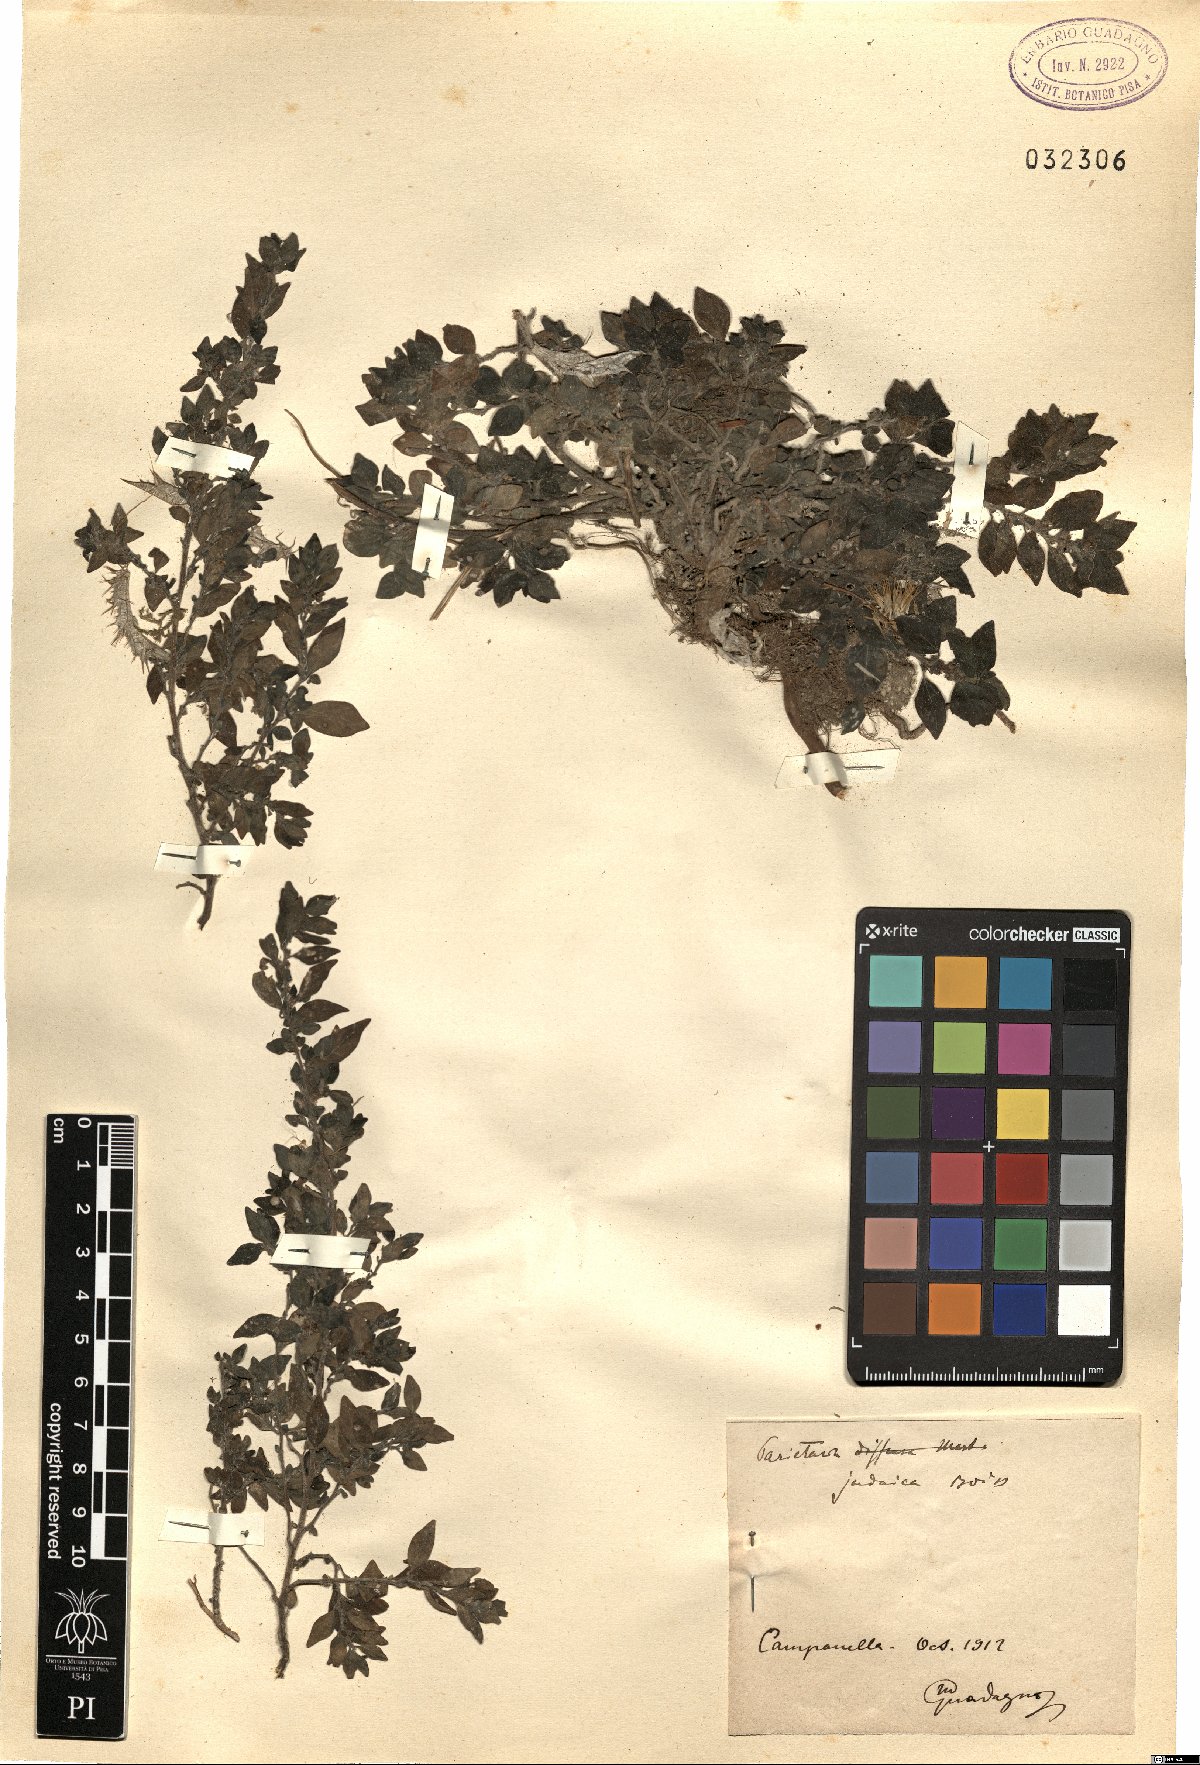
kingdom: Plantae
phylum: Tracheophyta
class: Magnoliopsida
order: Rosales
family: Urticaceae
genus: Parietaria
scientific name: Parietaria judaica
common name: Pellitory-of-the-wall
